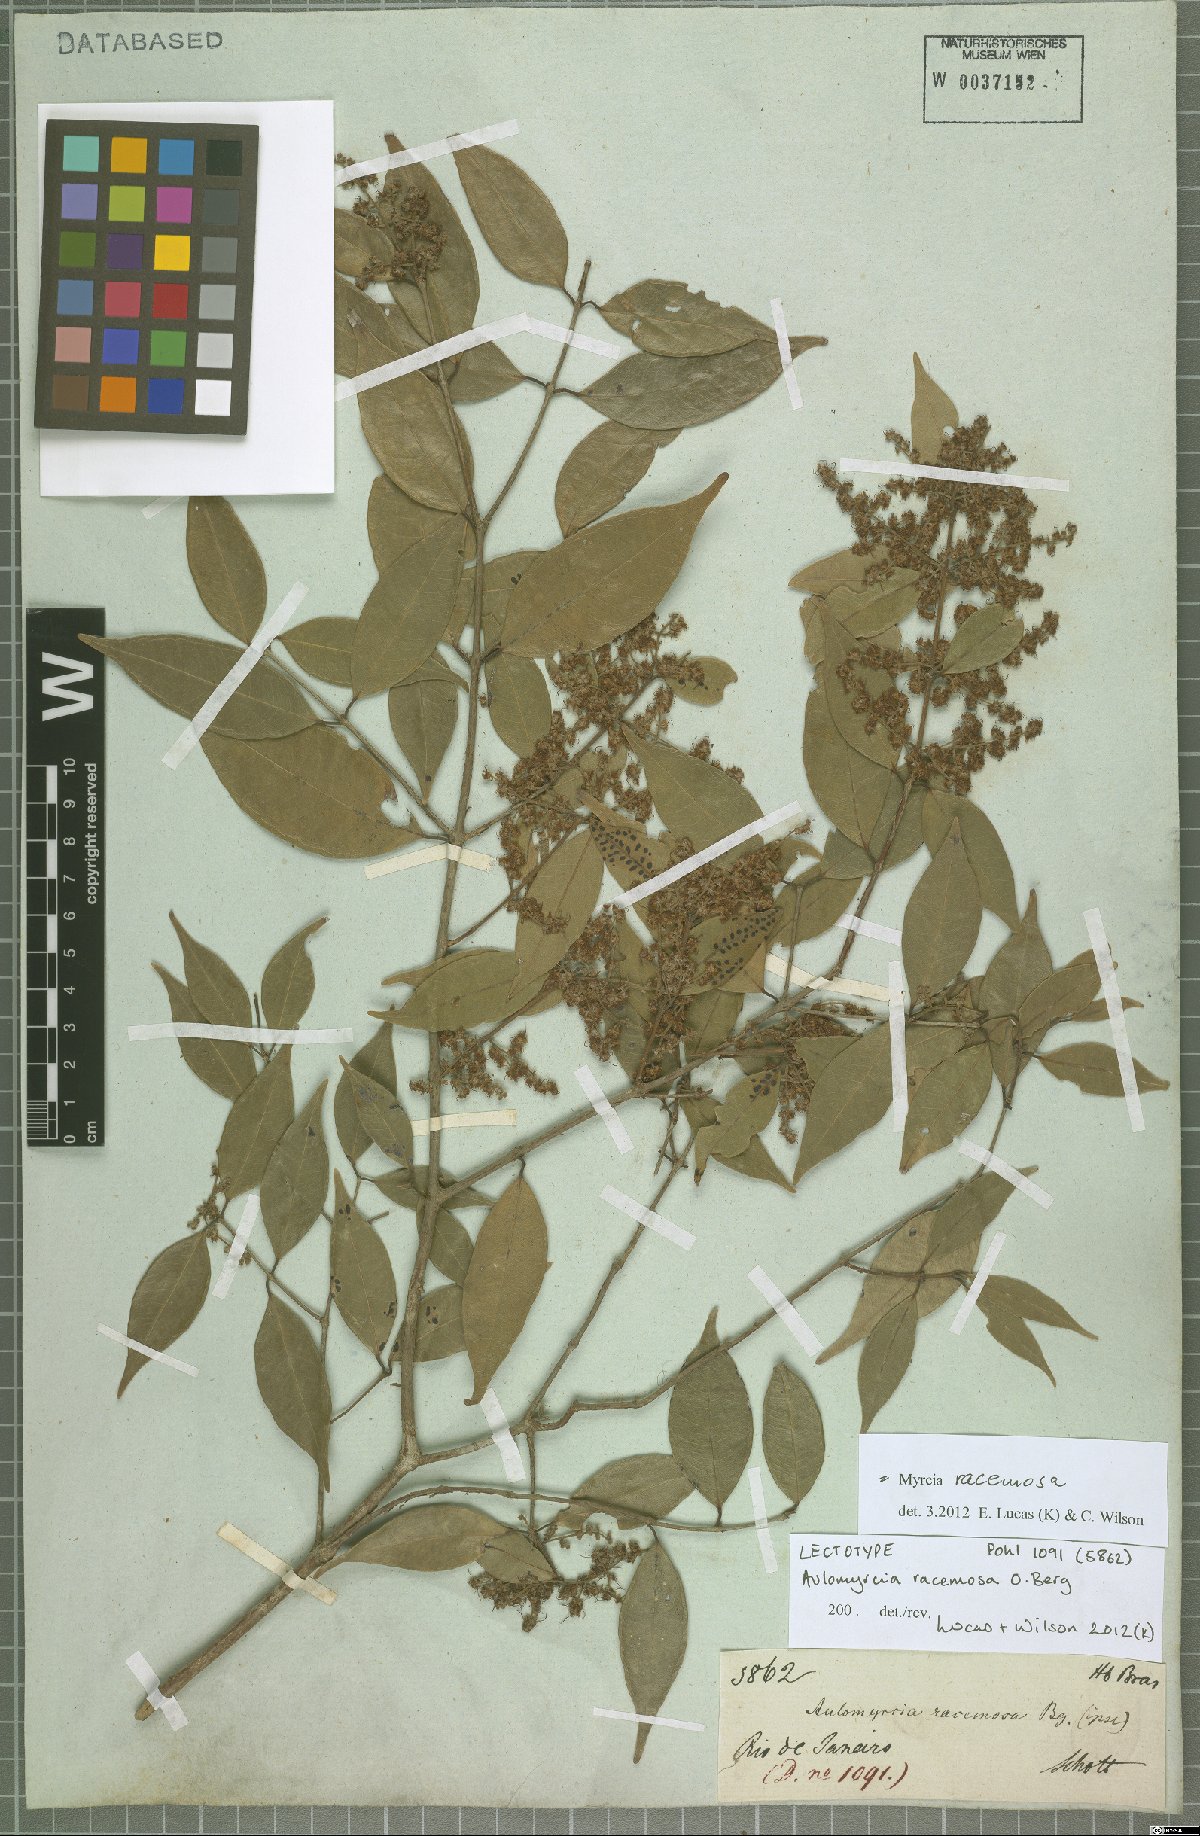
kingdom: Plantae
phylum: Tracheophyta
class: Magnoliopsida
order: Myrtales
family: Myrtaceae
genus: Myrcia
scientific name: Myrcia racemosa
